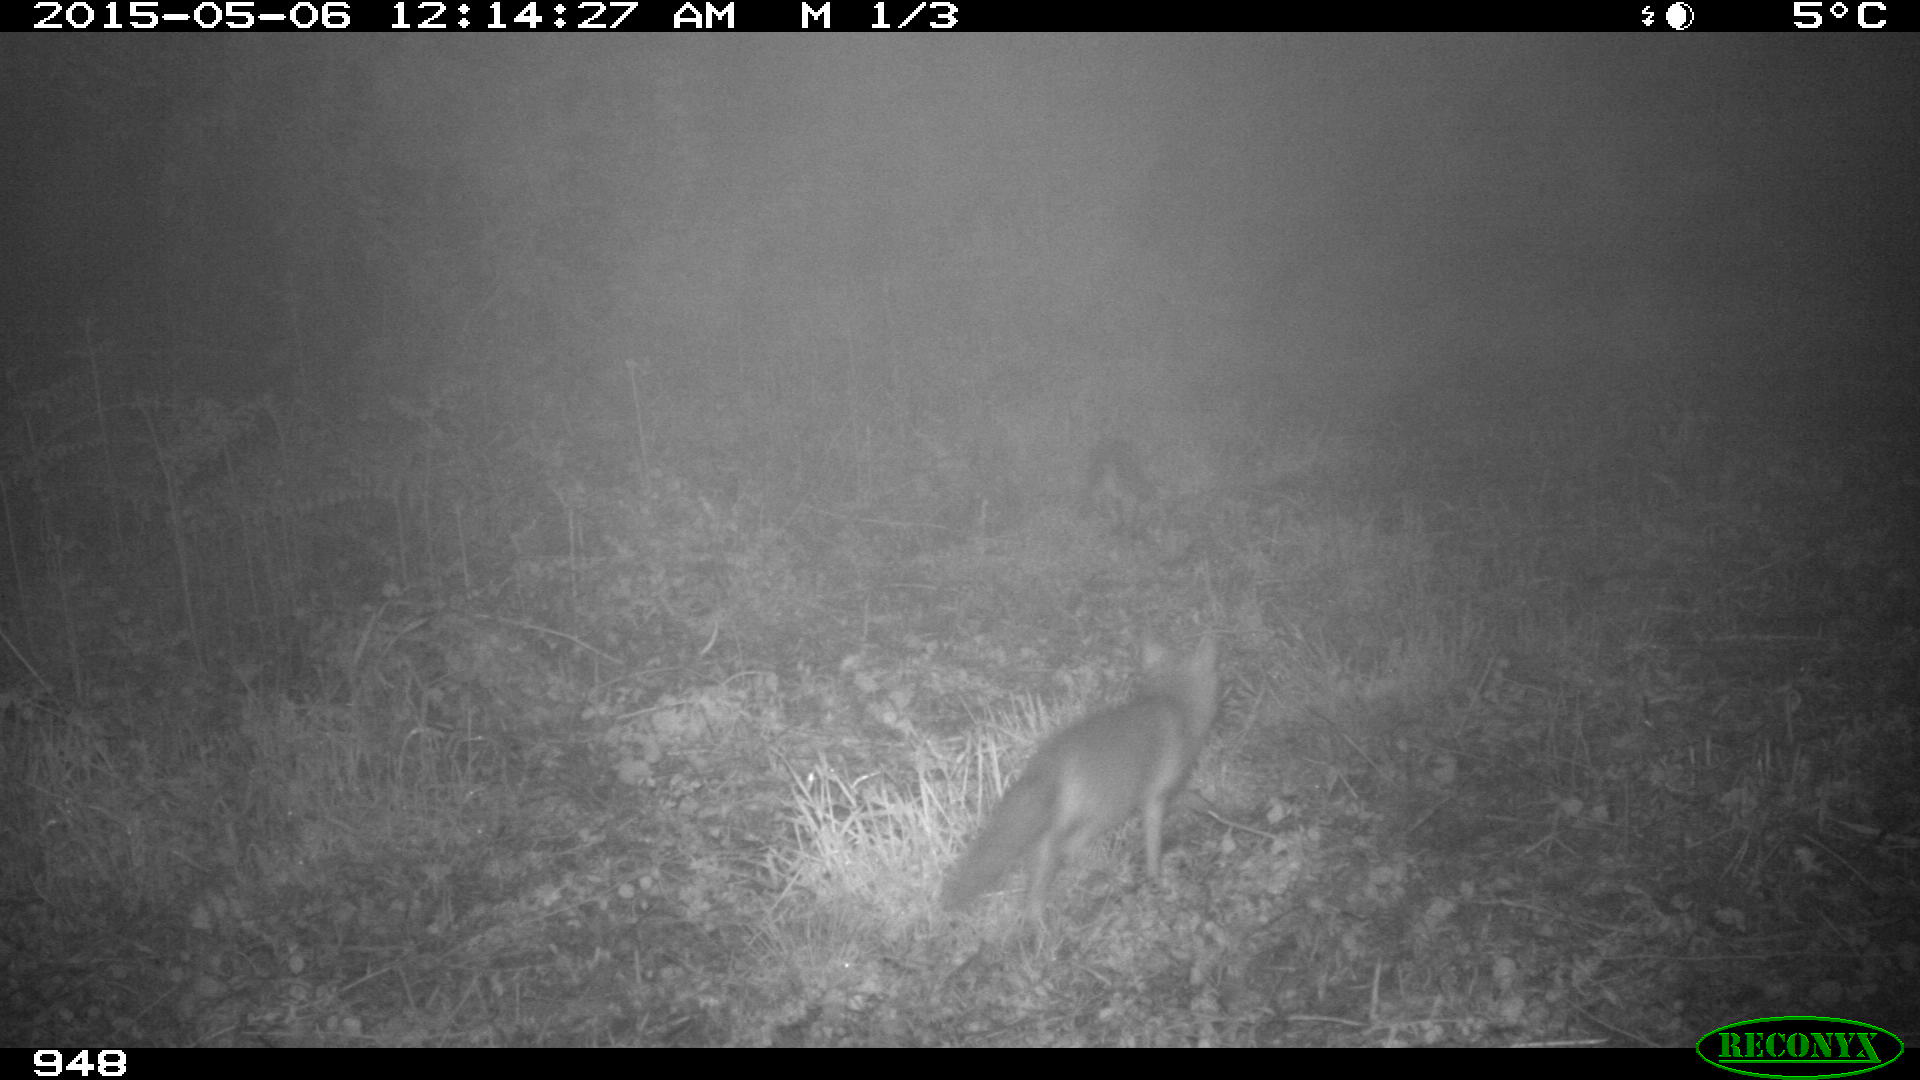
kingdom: Animalia
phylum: Chordata
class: Mammalia
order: Carnivora
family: Canidae
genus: Vulpes
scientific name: Vulpes vulpes
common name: Red fox
